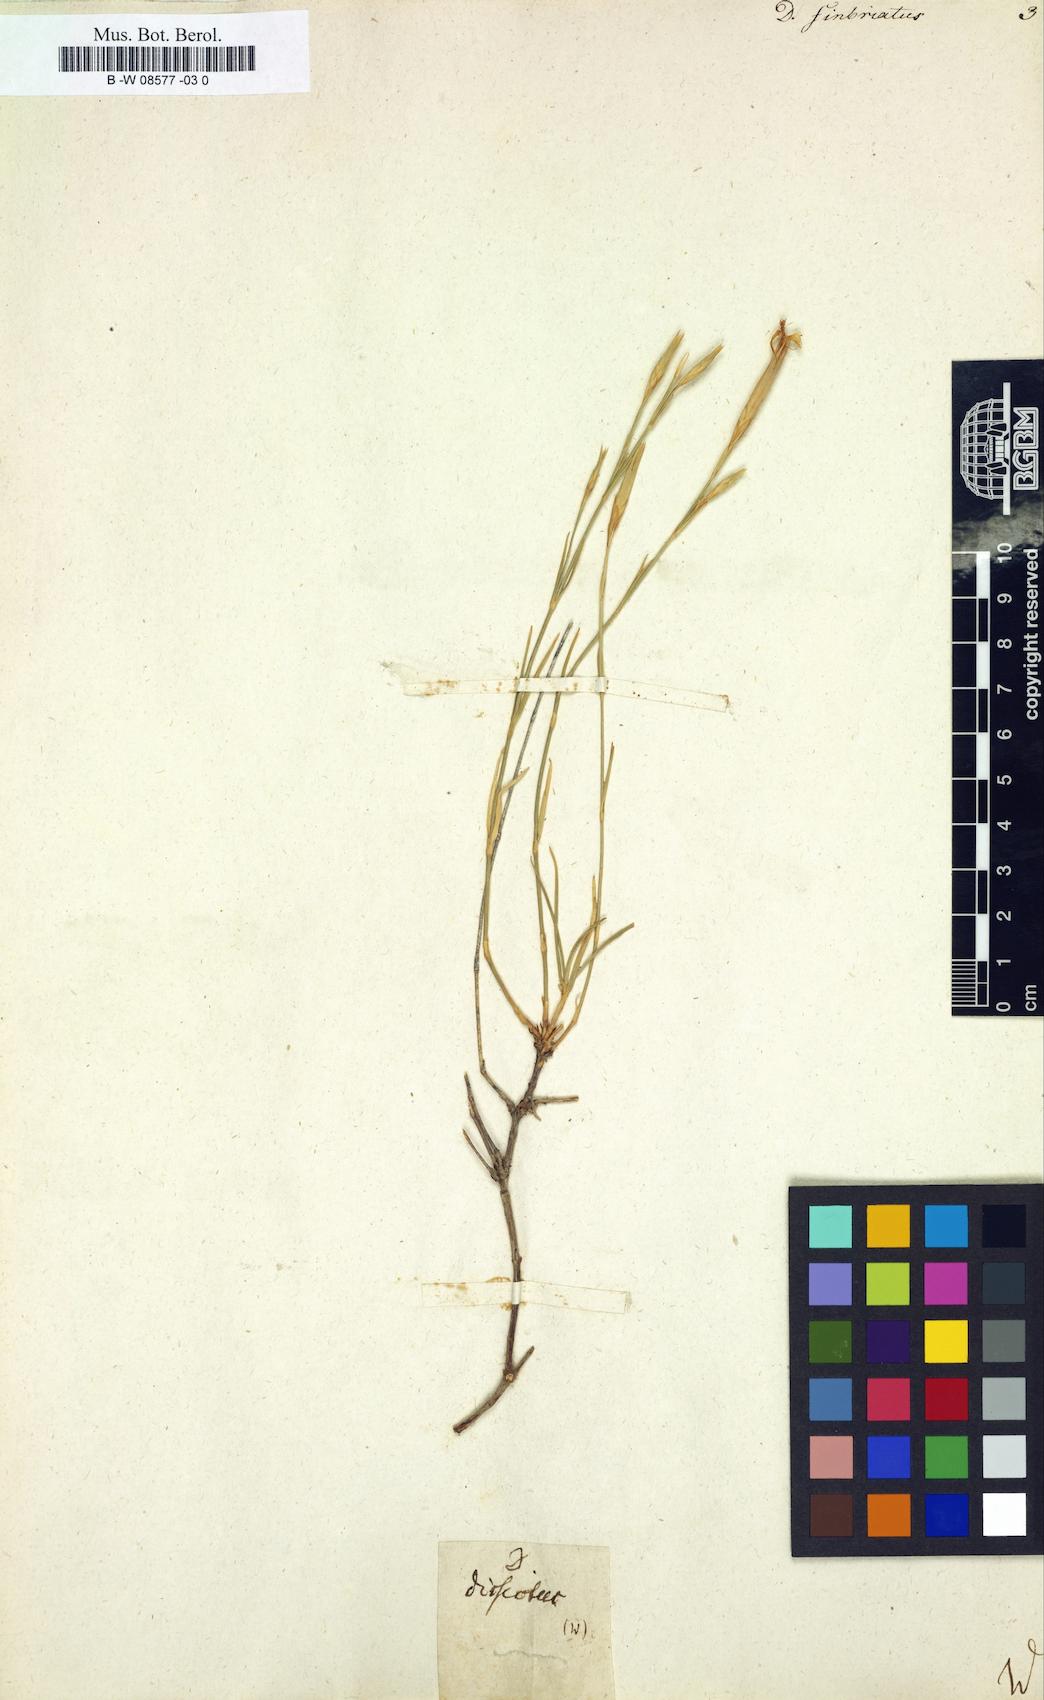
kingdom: Plantae
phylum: Tracheophyta
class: Magnoliopsida
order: Caryophyllales
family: Caryophyllaceae
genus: Dianthus
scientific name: Dianthus
